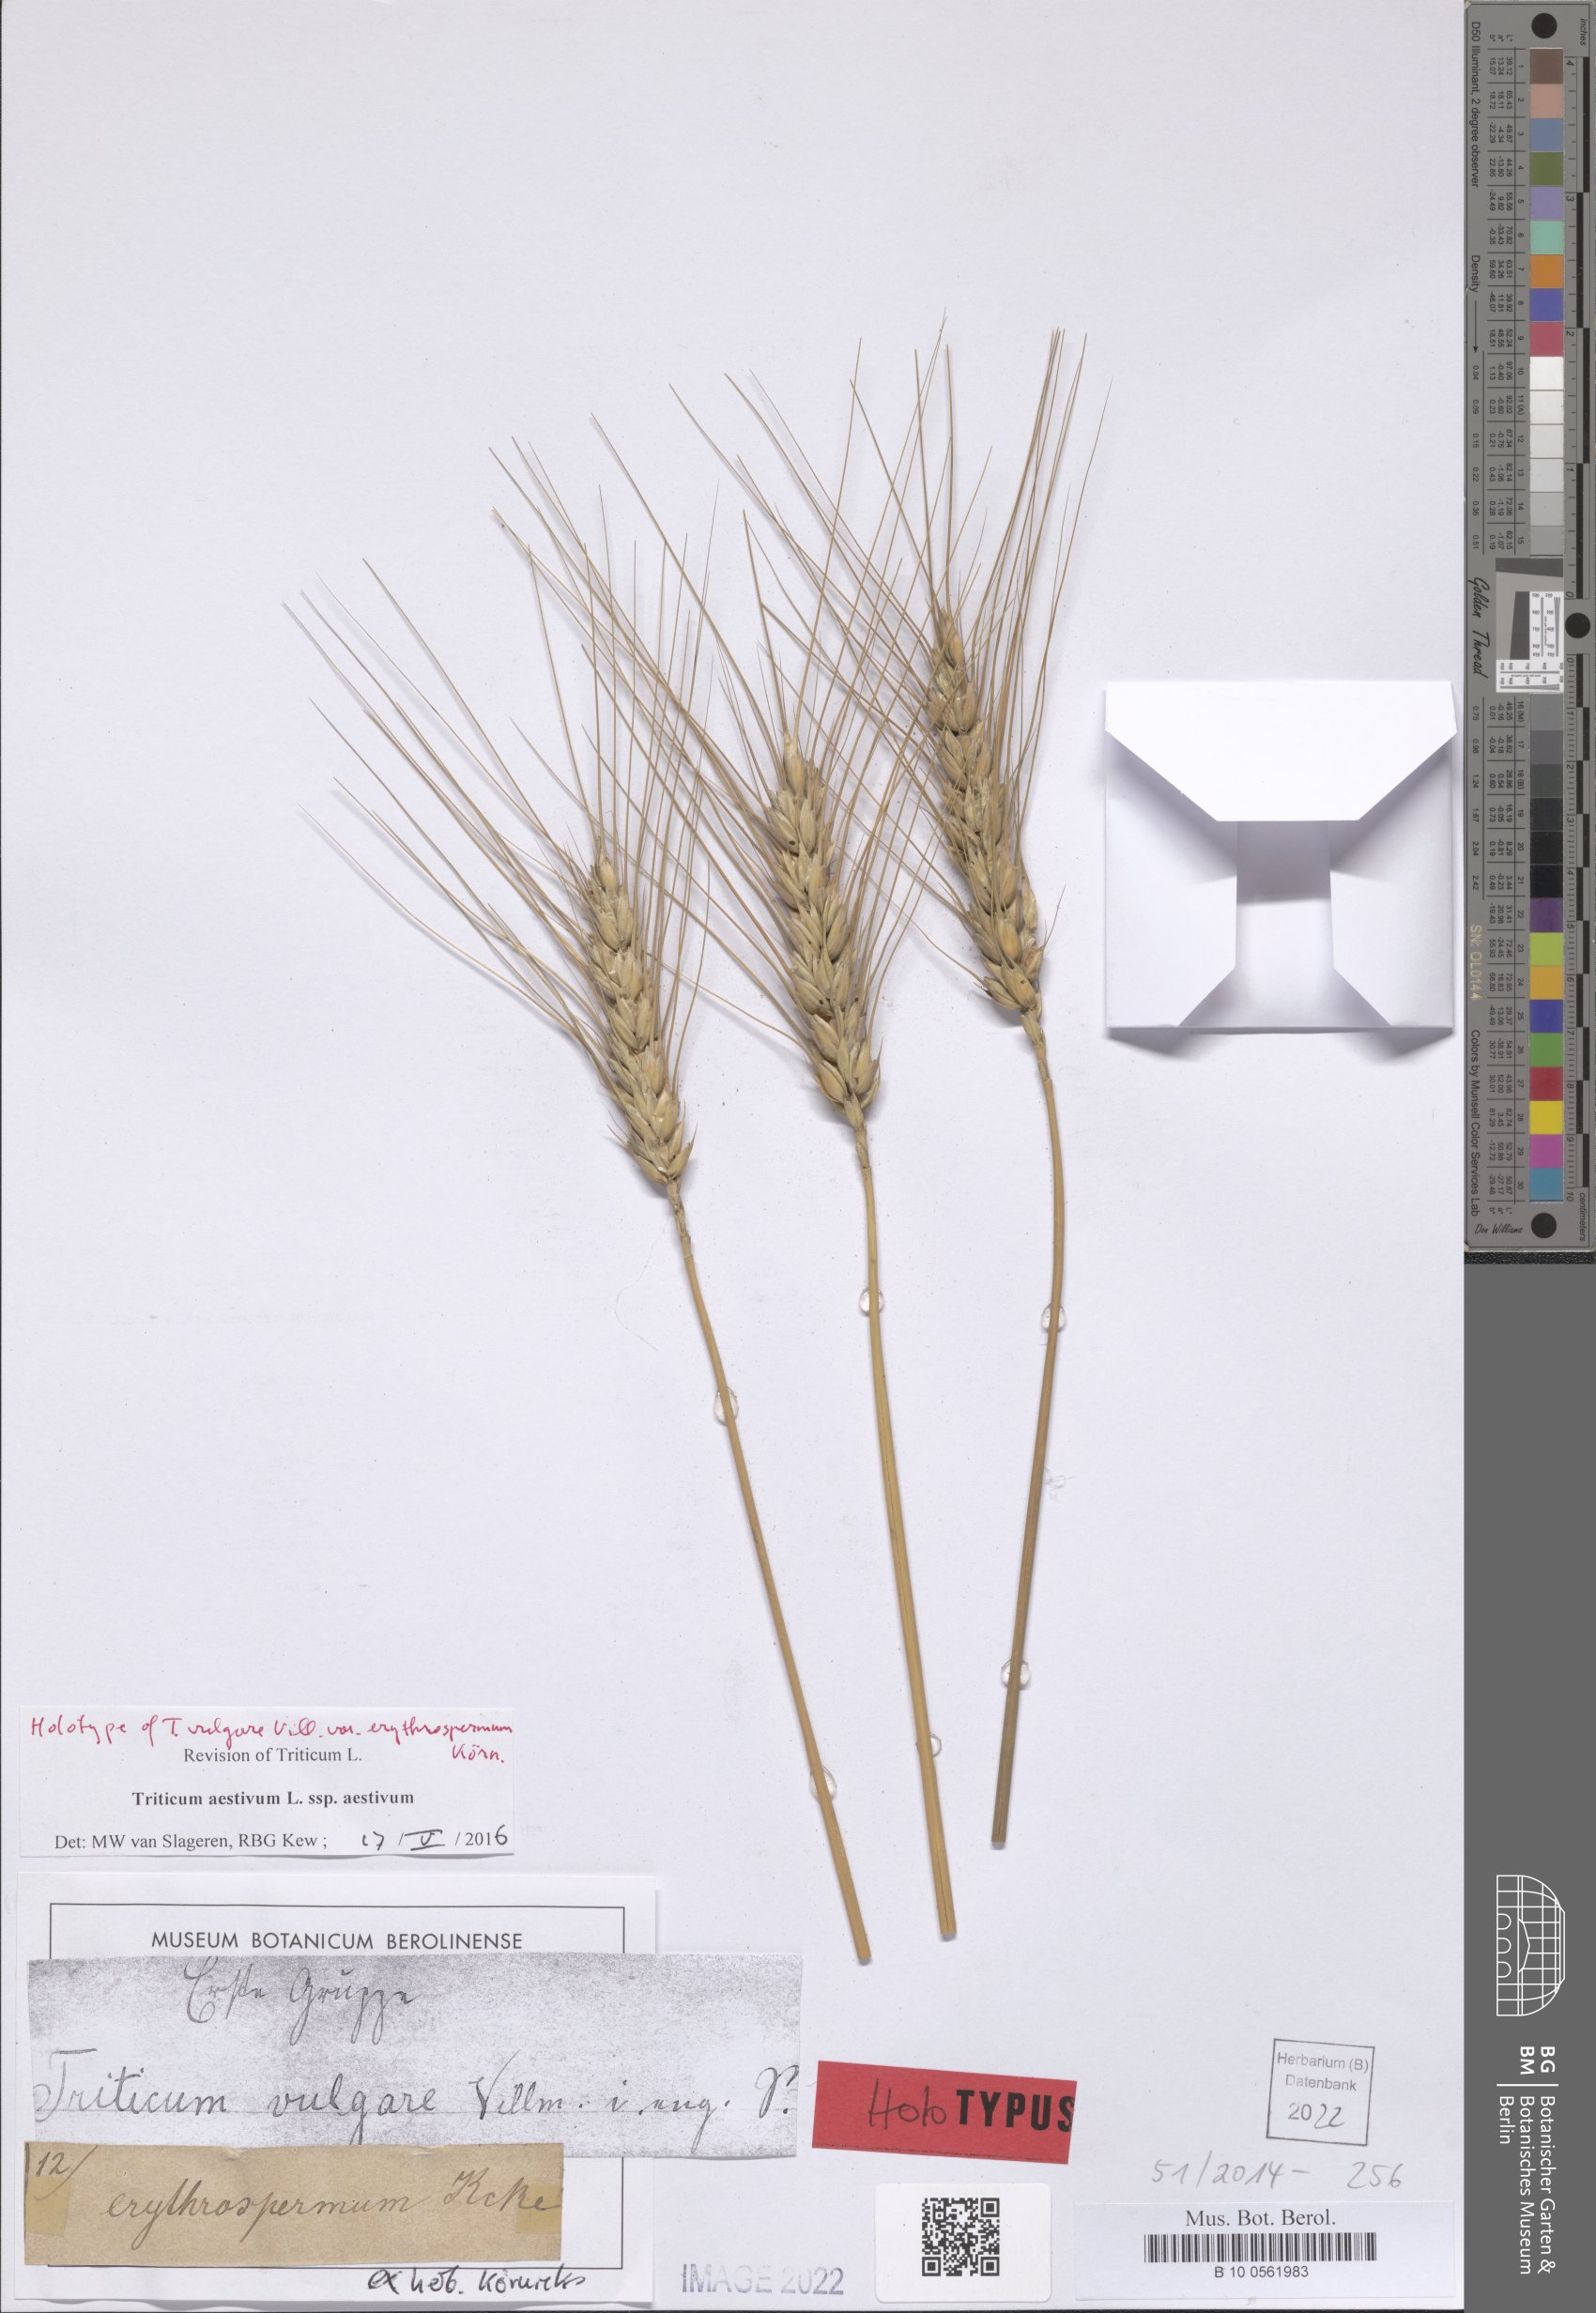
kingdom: Plantae
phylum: Tracheophyta
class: Liliopsida
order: Poales
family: Poaceae
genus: Triticum
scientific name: Triticum aestivum
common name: Common wheat
